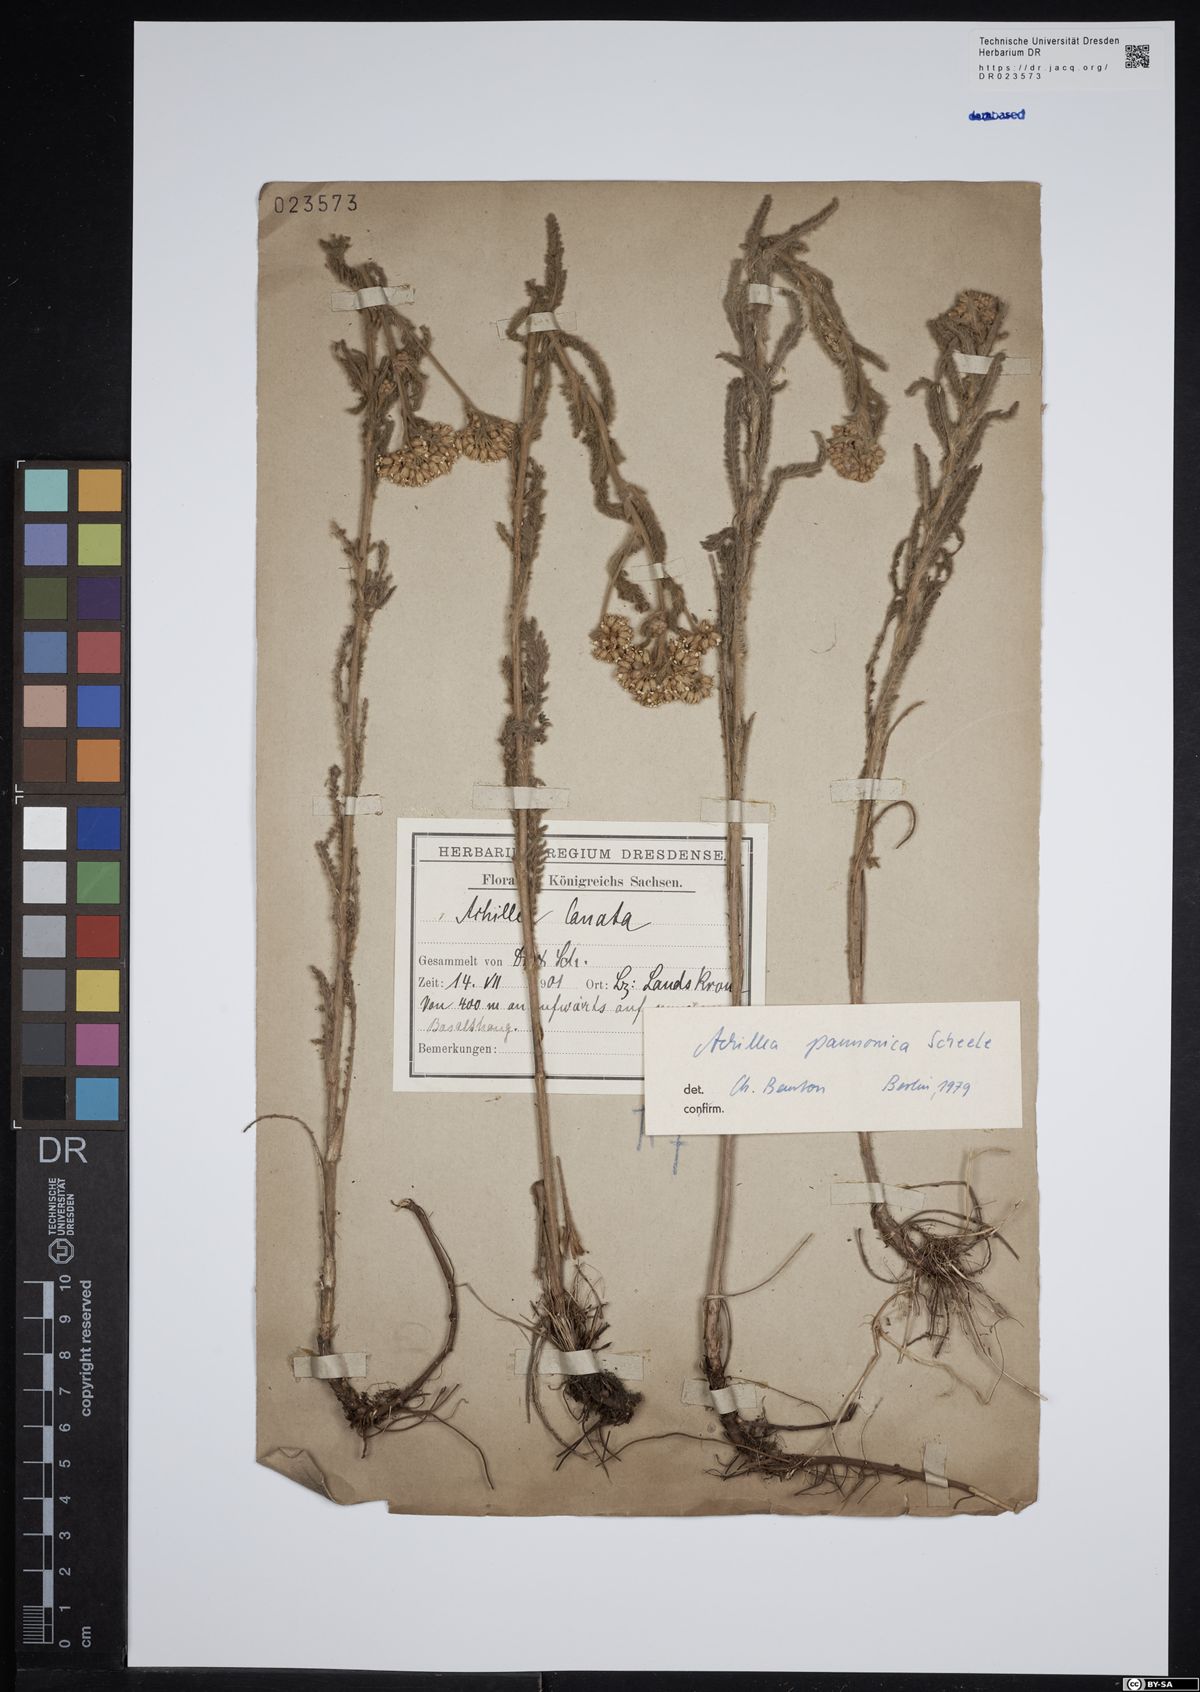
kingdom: Plantae
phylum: Tracheophyta
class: Magnoliopsida
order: Asterales
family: Asteraceae
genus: Achillea
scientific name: Achillea pannonica
